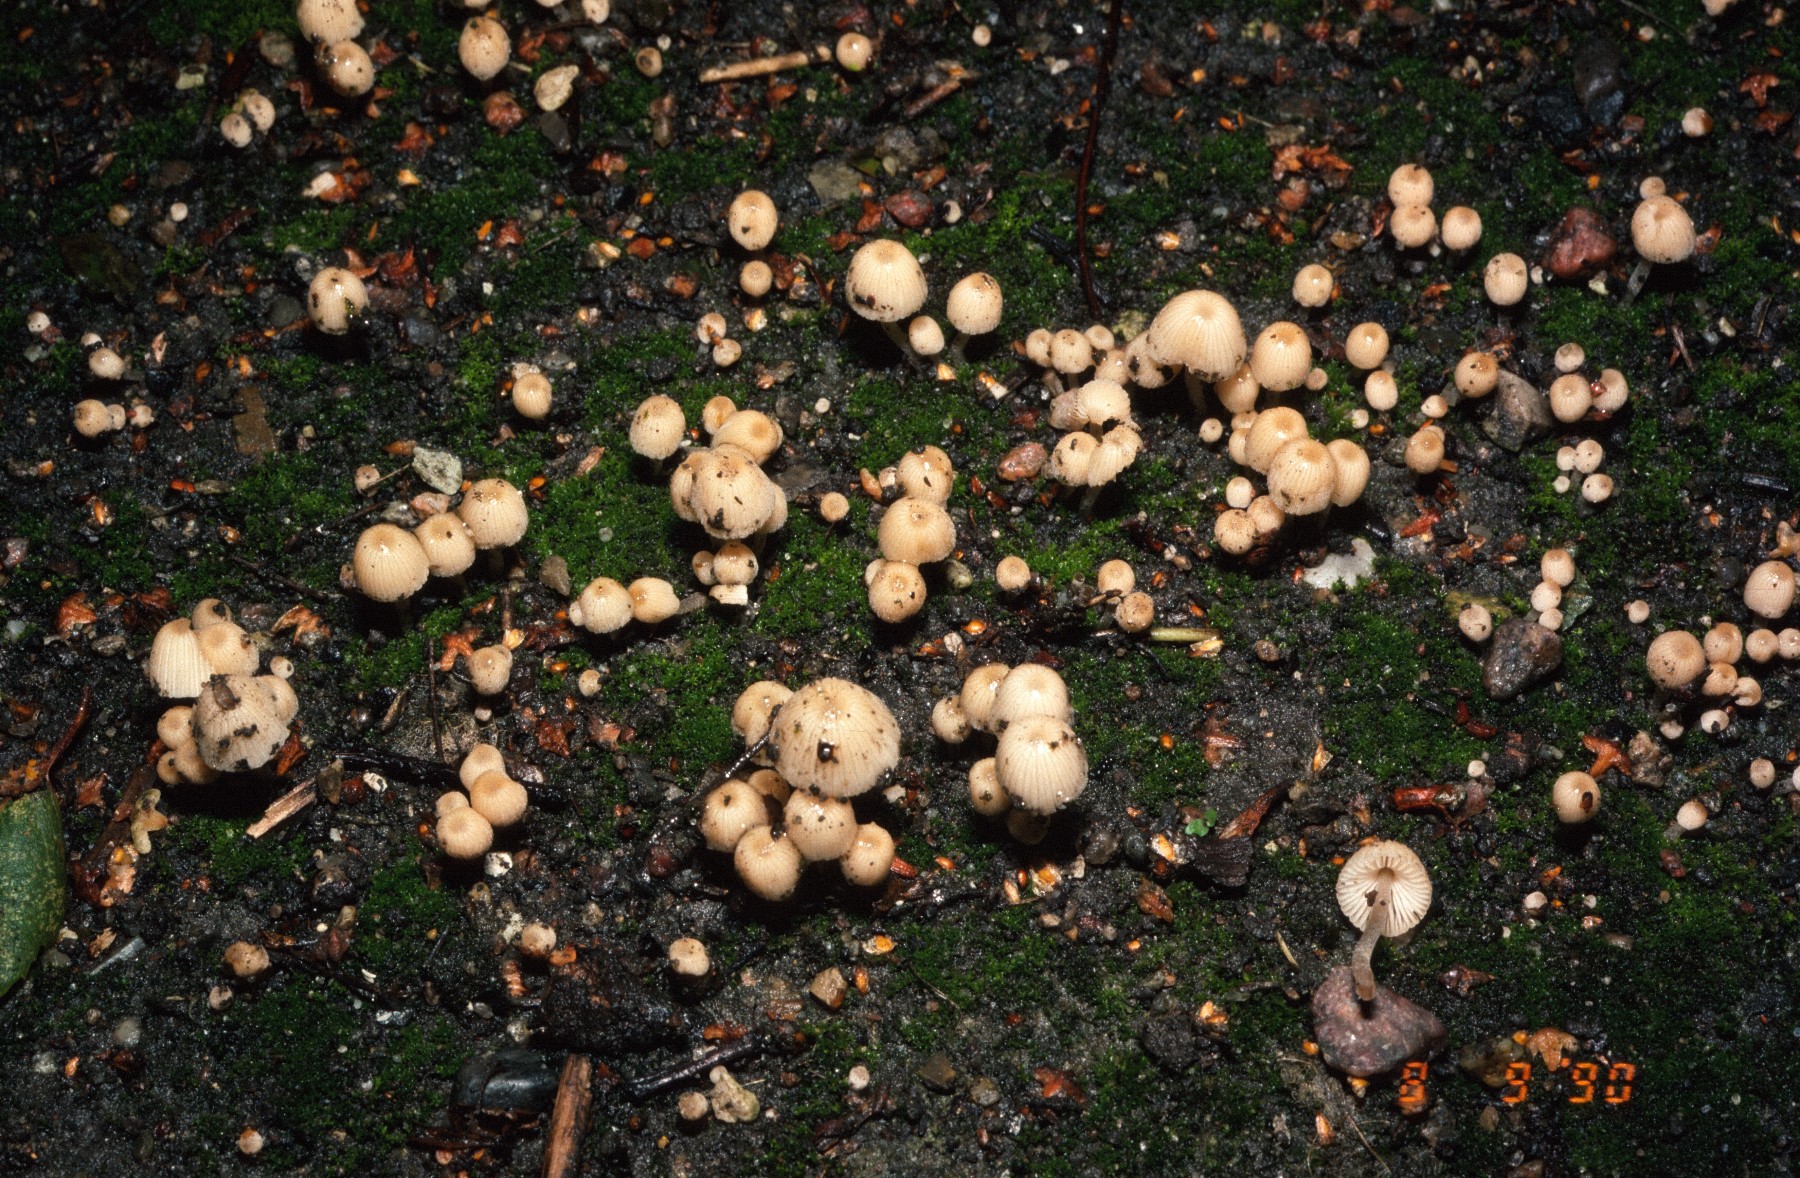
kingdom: Fungi
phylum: Basidiomycota
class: Agaricomycetes
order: Agaricales
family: Psathyrellaceae
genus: Coprinellus
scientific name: Coprinellus disseminatus
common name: bredsået blækhat
